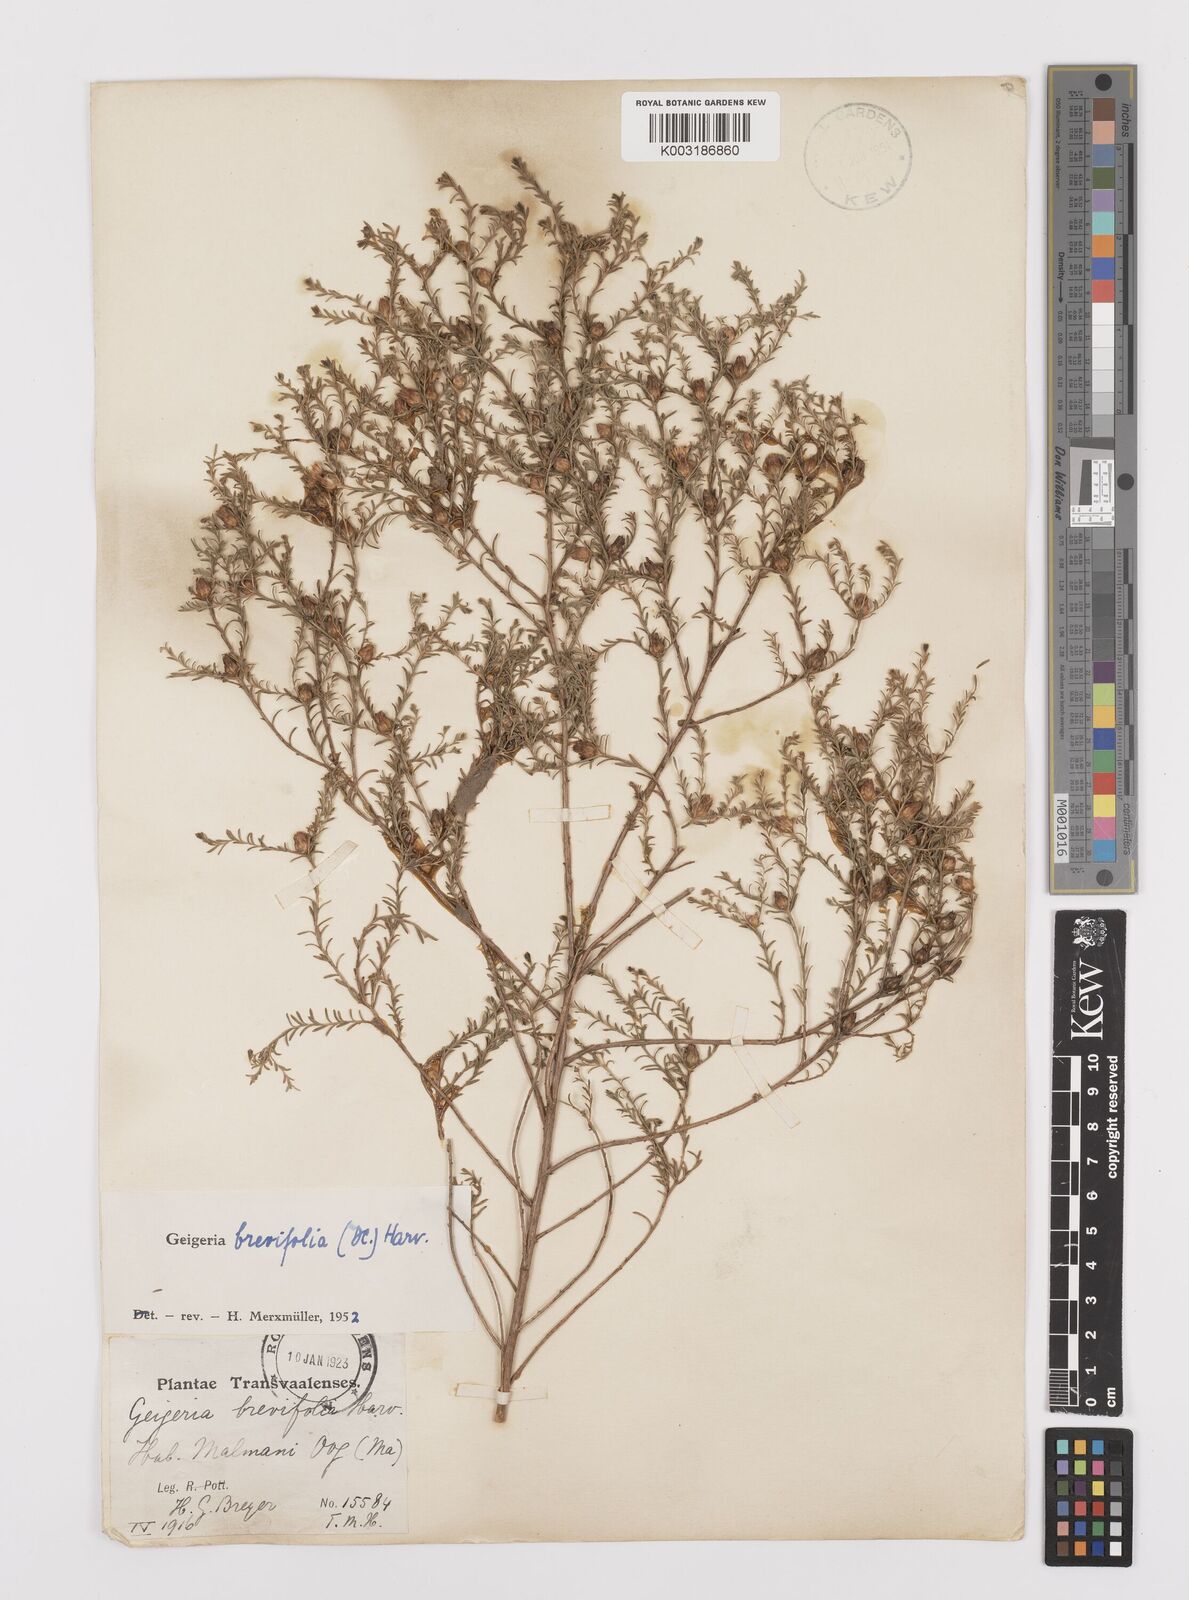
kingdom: Plantae
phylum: Tracheophyta
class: Magnoliopsida
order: Asterales
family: Asteraceae
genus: Geigeria
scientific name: Geigeria brevifolia
